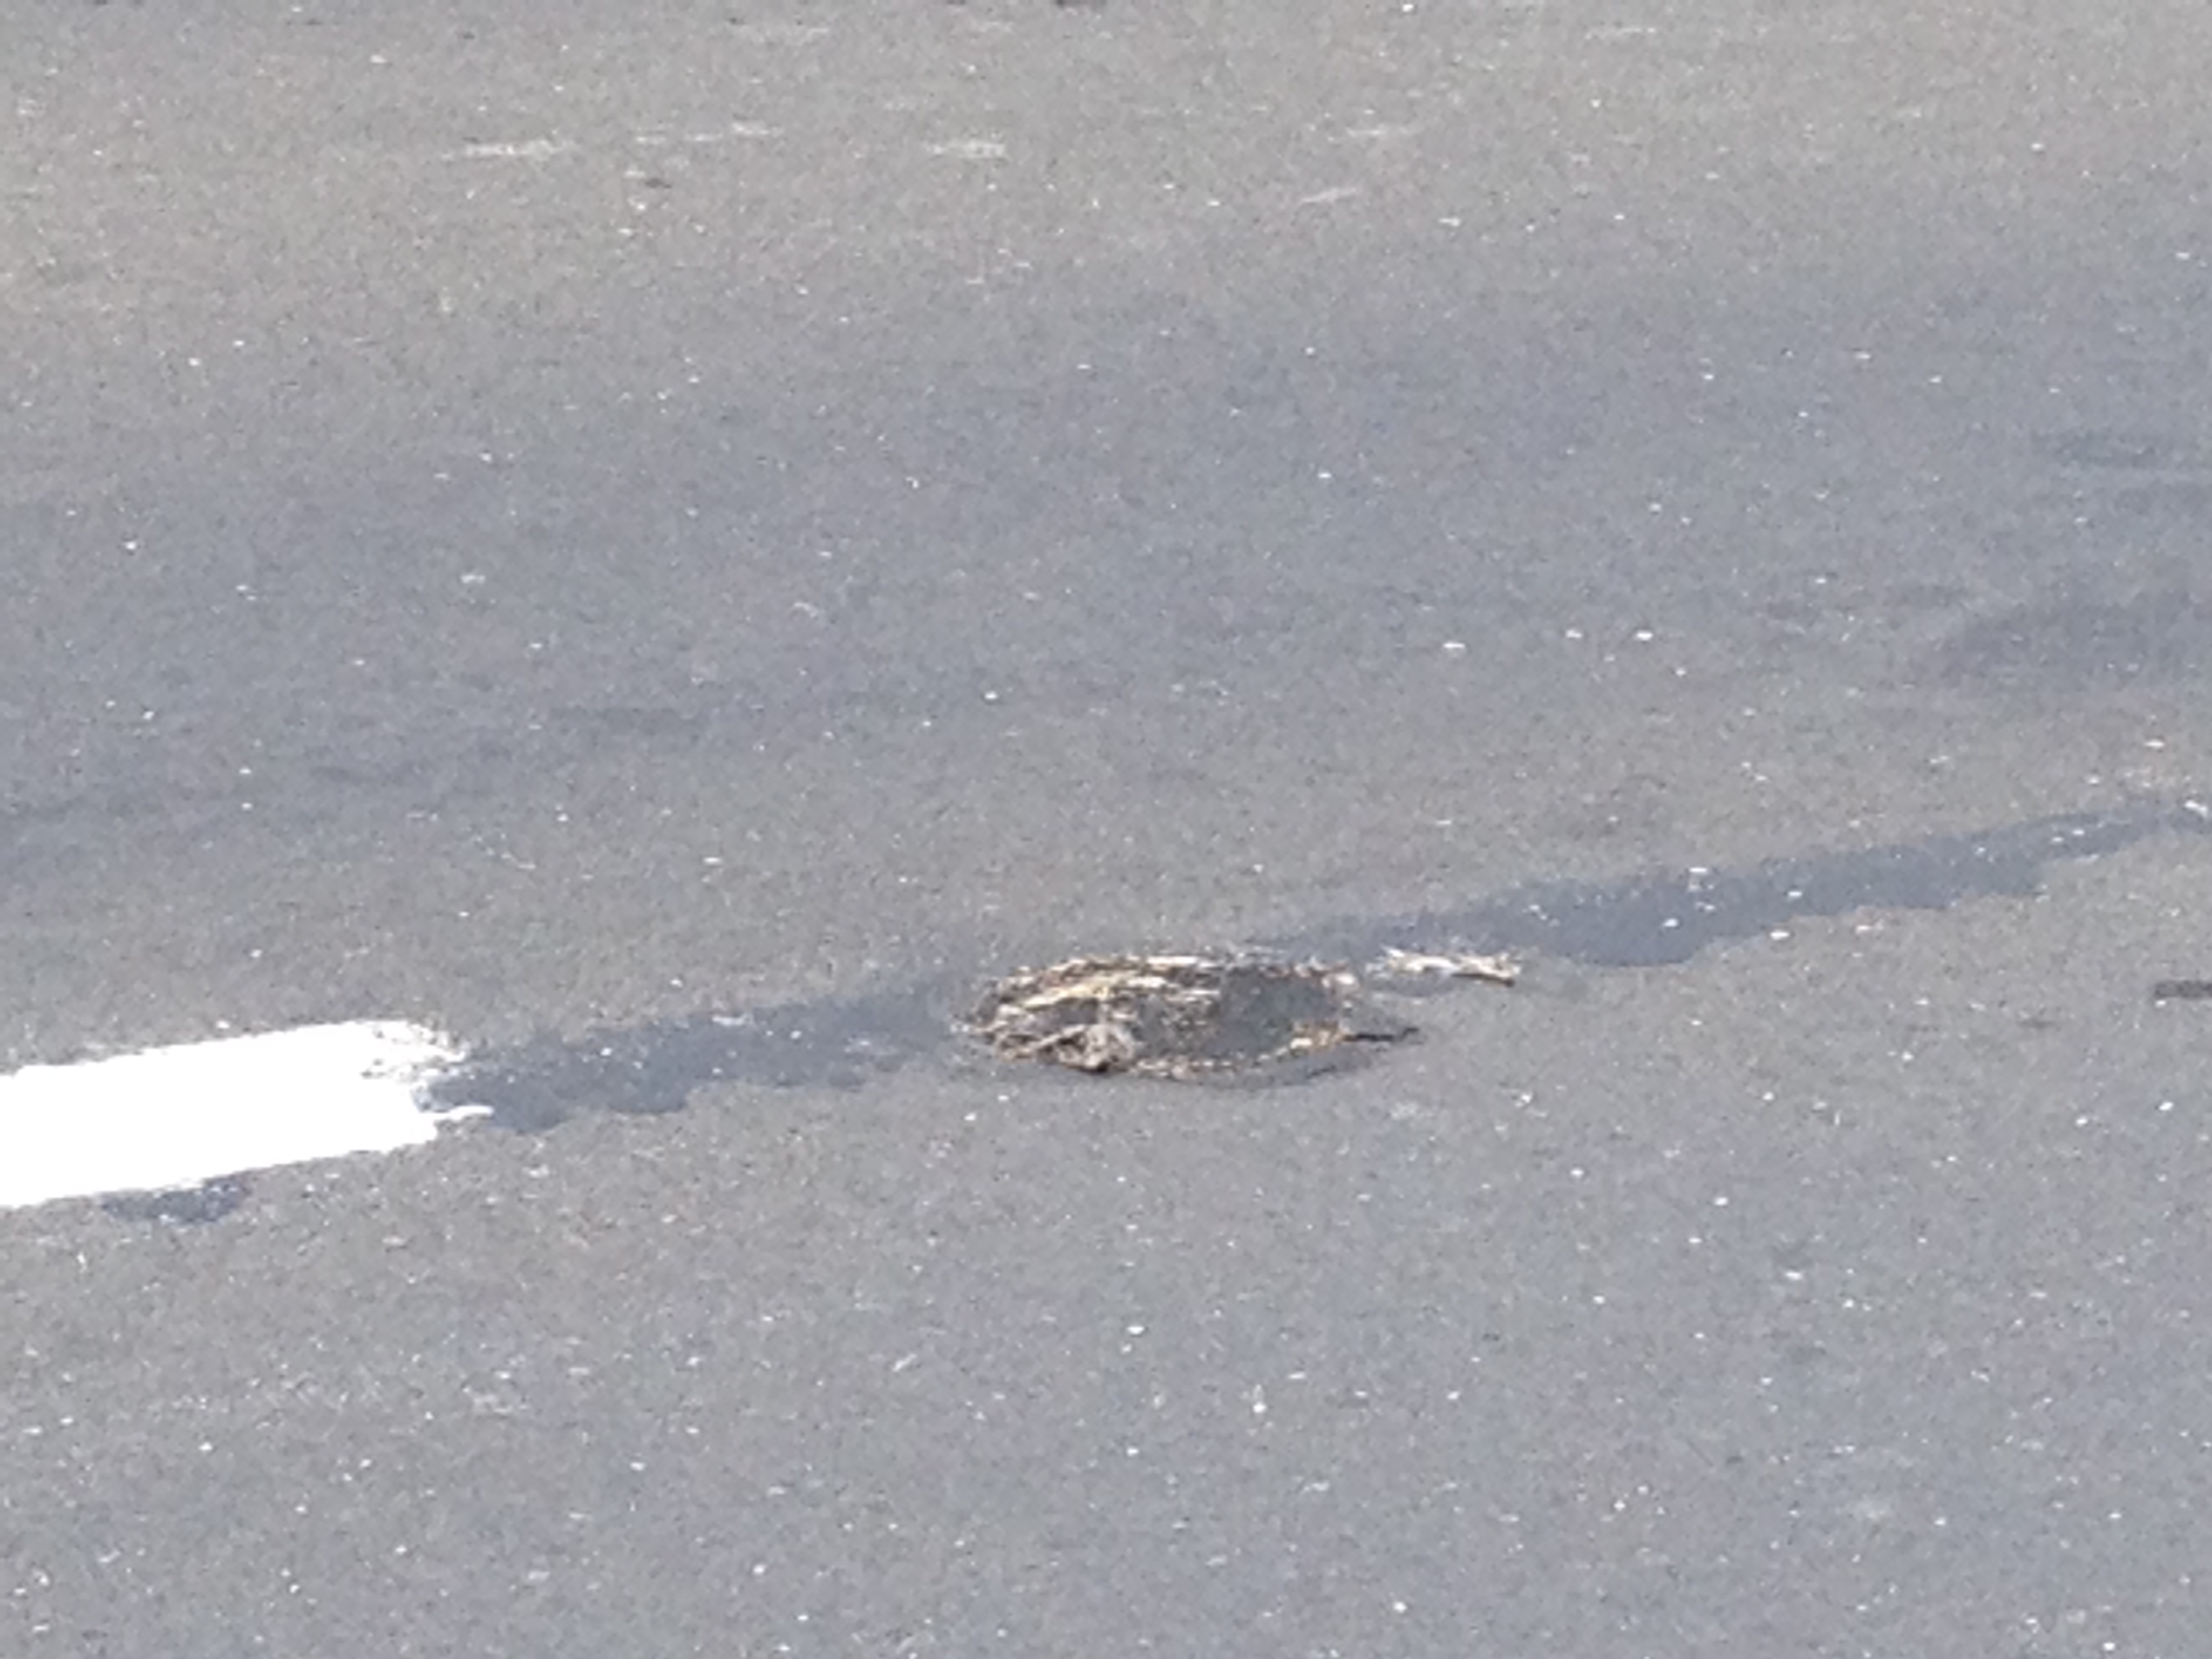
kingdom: Animalia
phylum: Chordata
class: Mammalia
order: Erinaceomorpha
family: Erinaceidae
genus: Erinaceus
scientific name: Erinaceus
